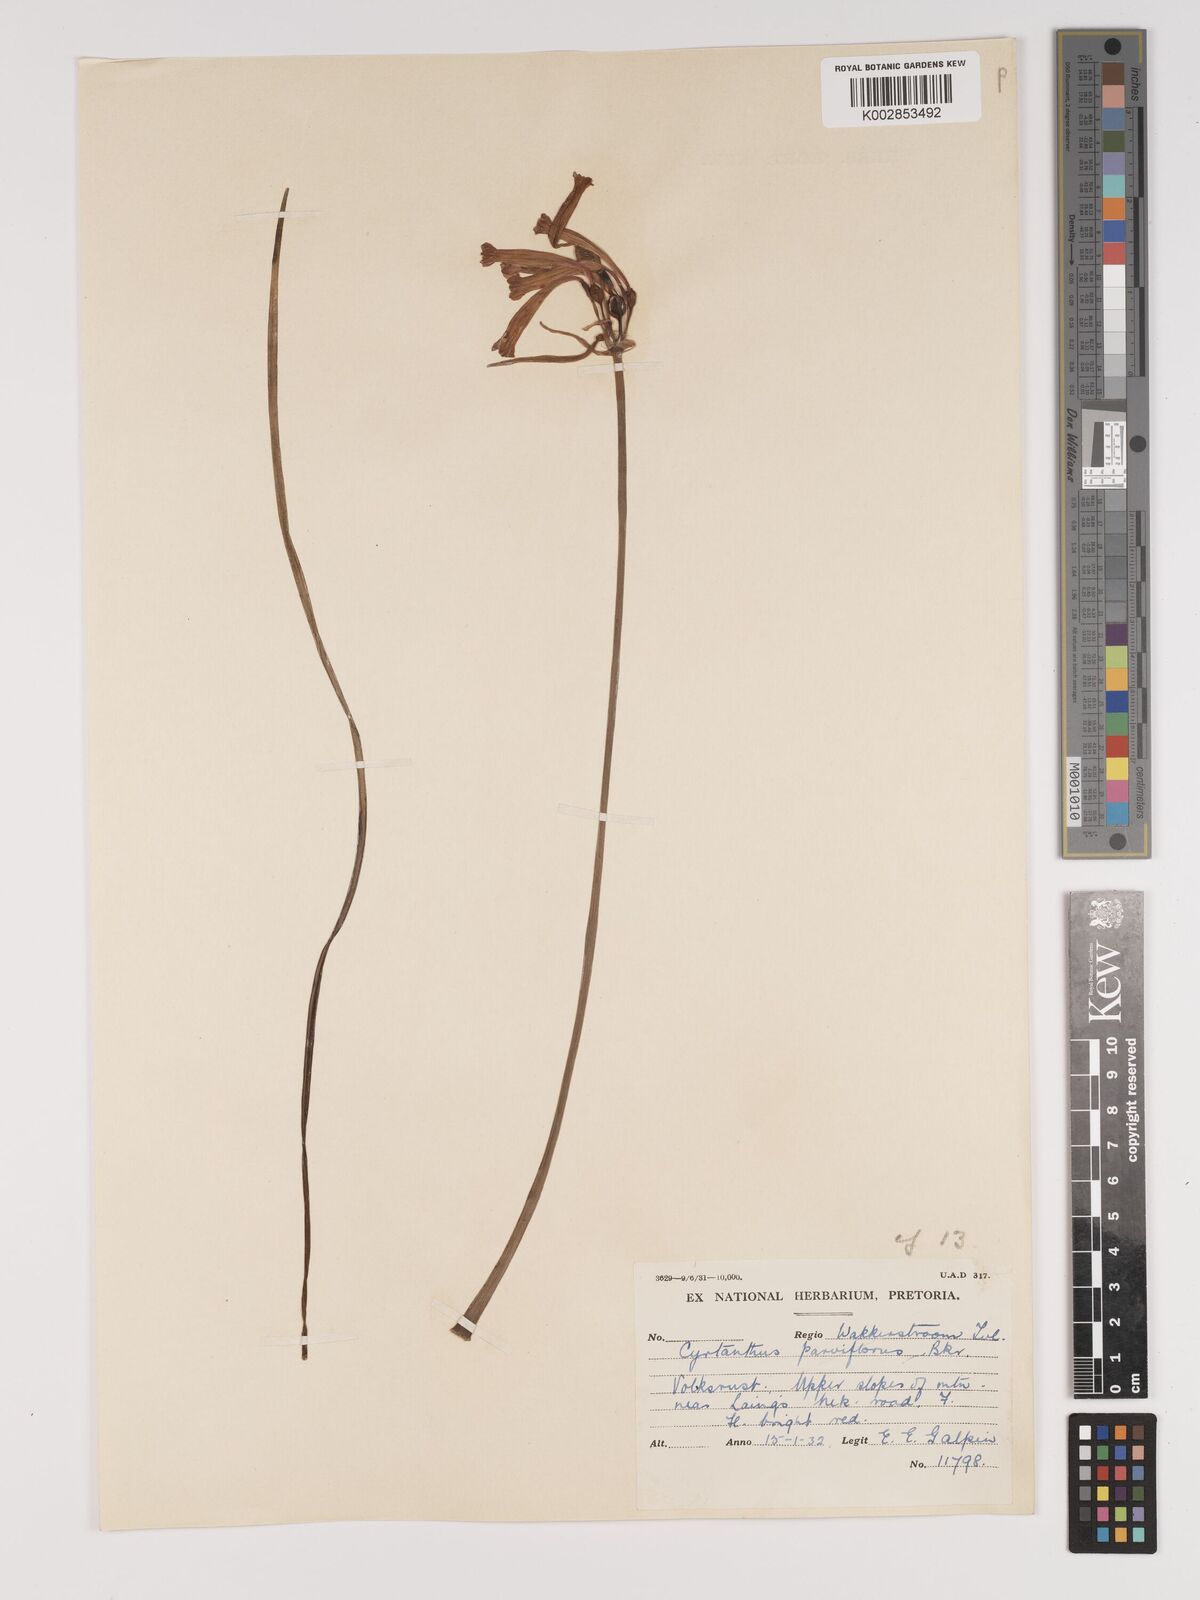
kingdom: Plantae
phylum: Tracheophyta
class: Liliopsida
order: Asparagales
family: Amaryllidaceae
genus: Cyrtanthus
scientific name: Cyrtanthus macowanii
